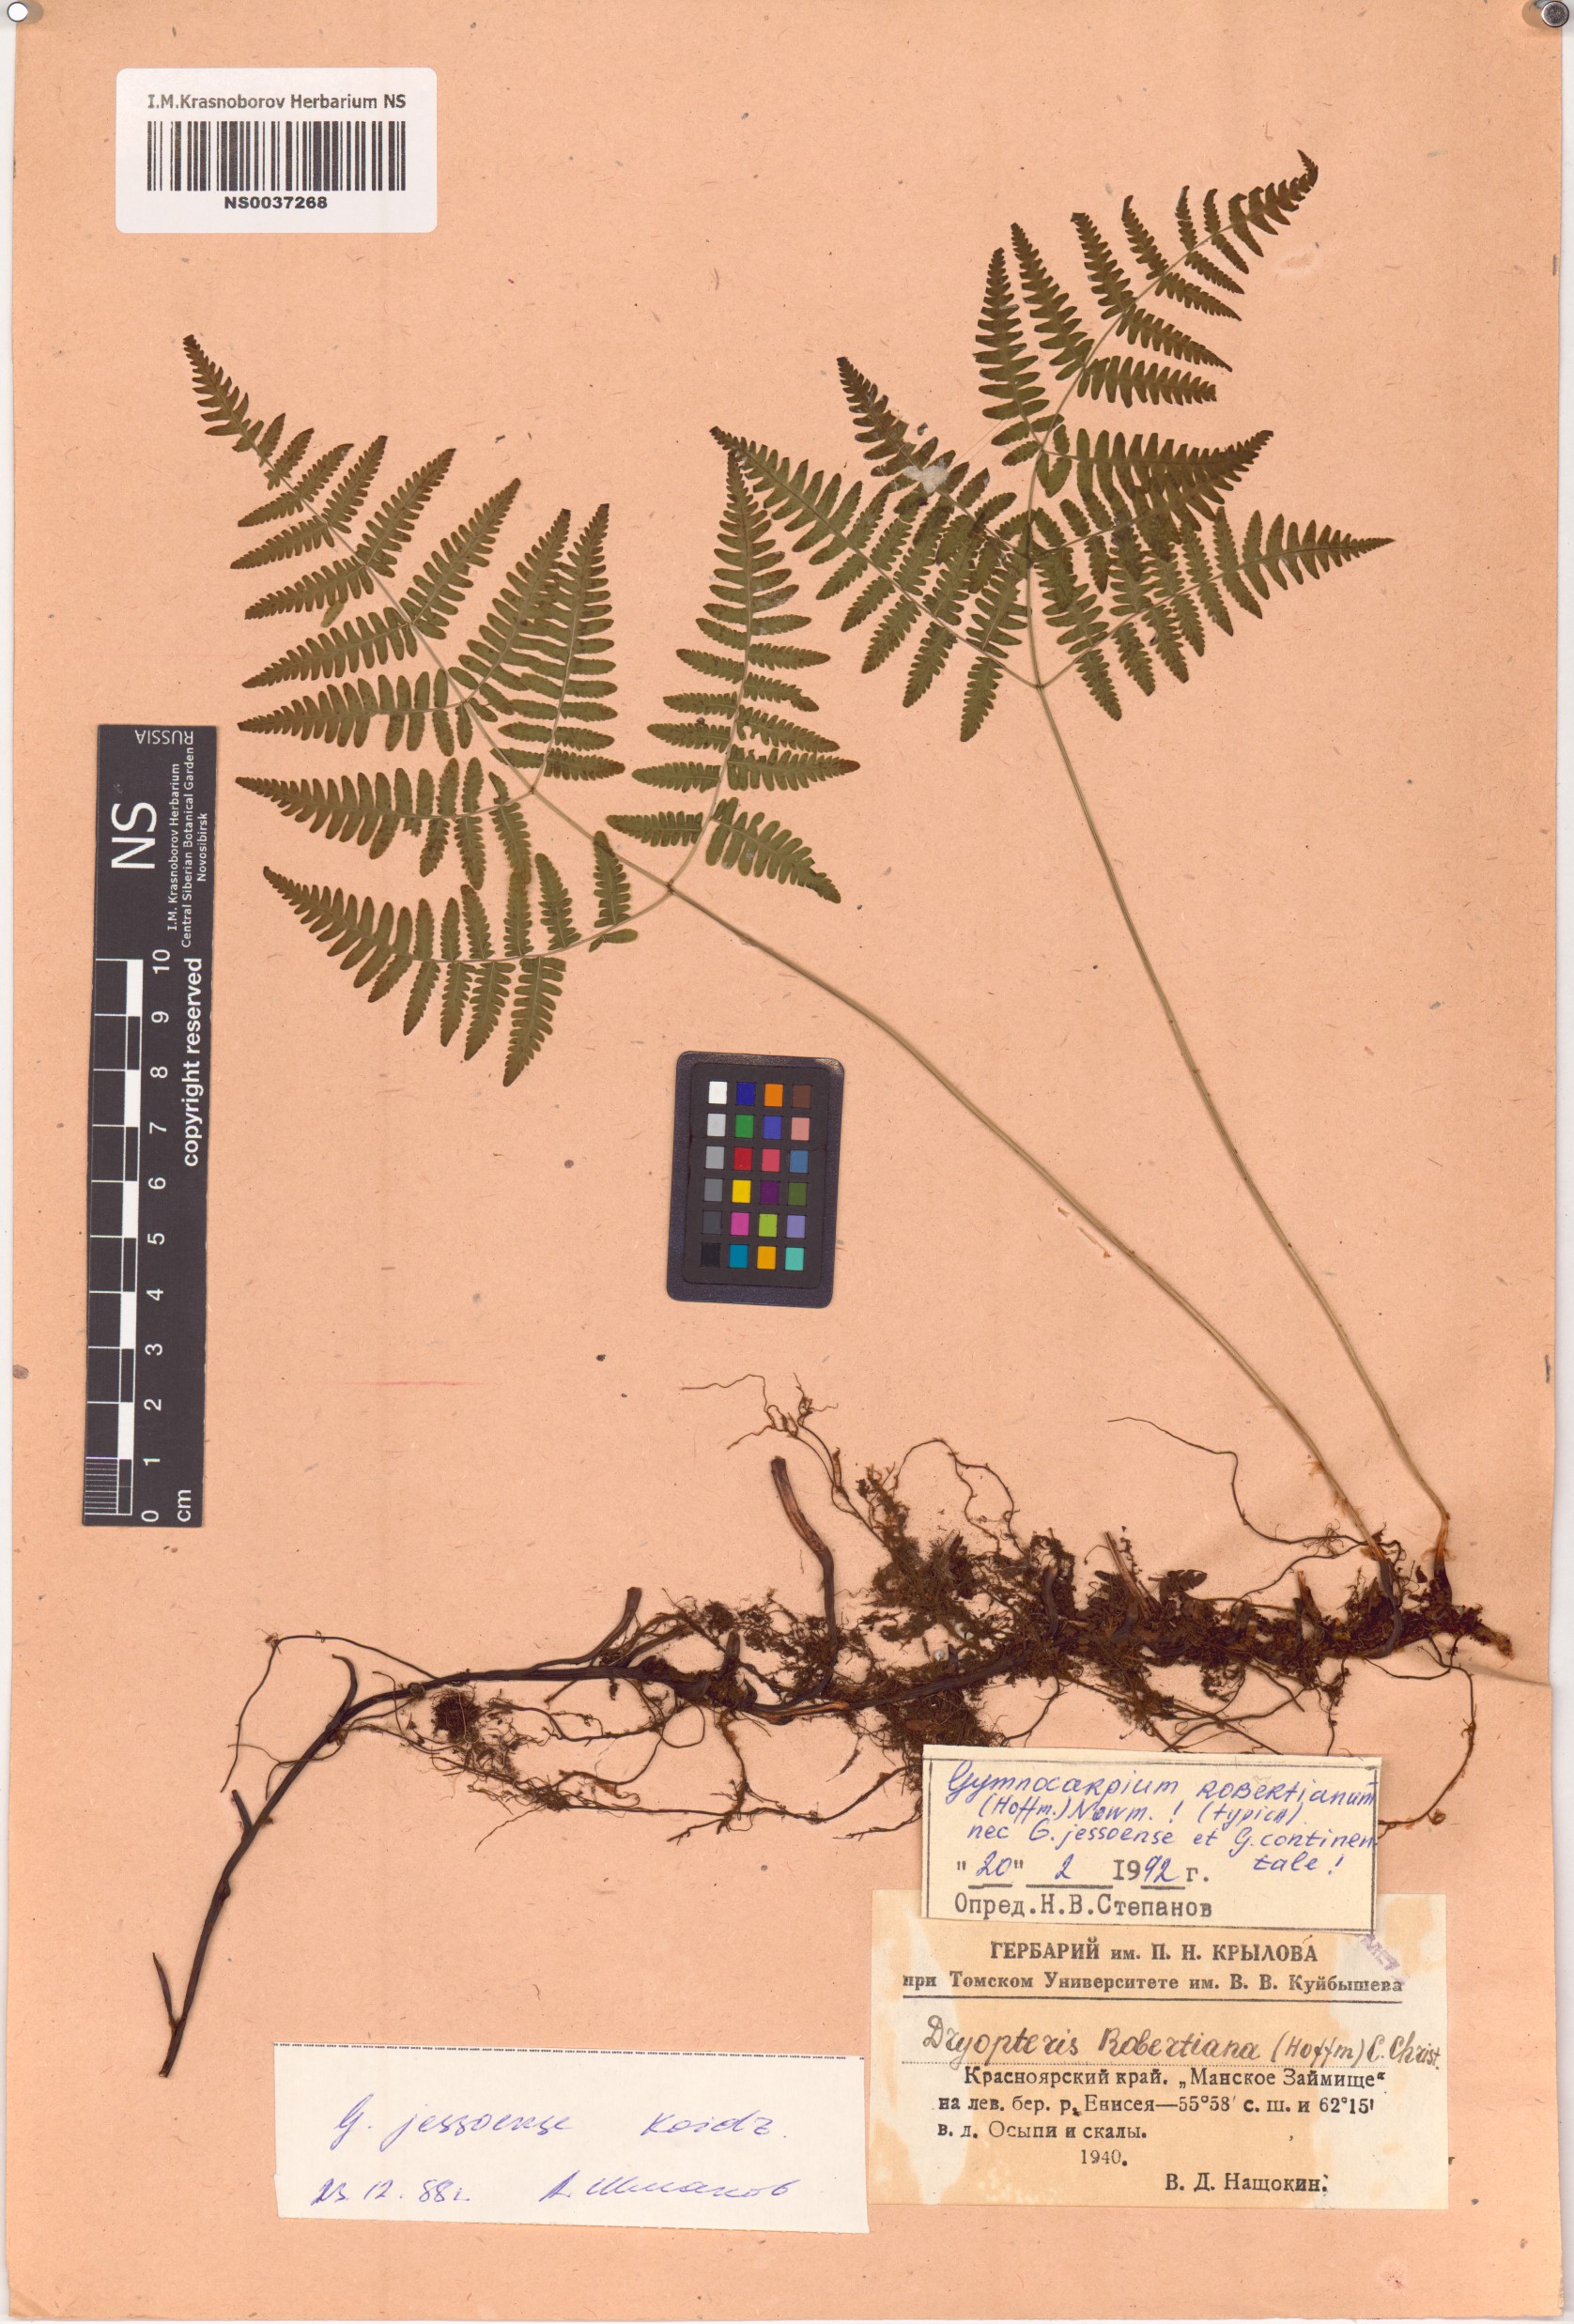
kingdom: Plantae
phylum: Tracheophyta
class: Polypodiopsida
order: Polypodiales
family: Cystopteridaceae
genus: Gymnocarpium
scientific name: Gymnocarpium jessoense
